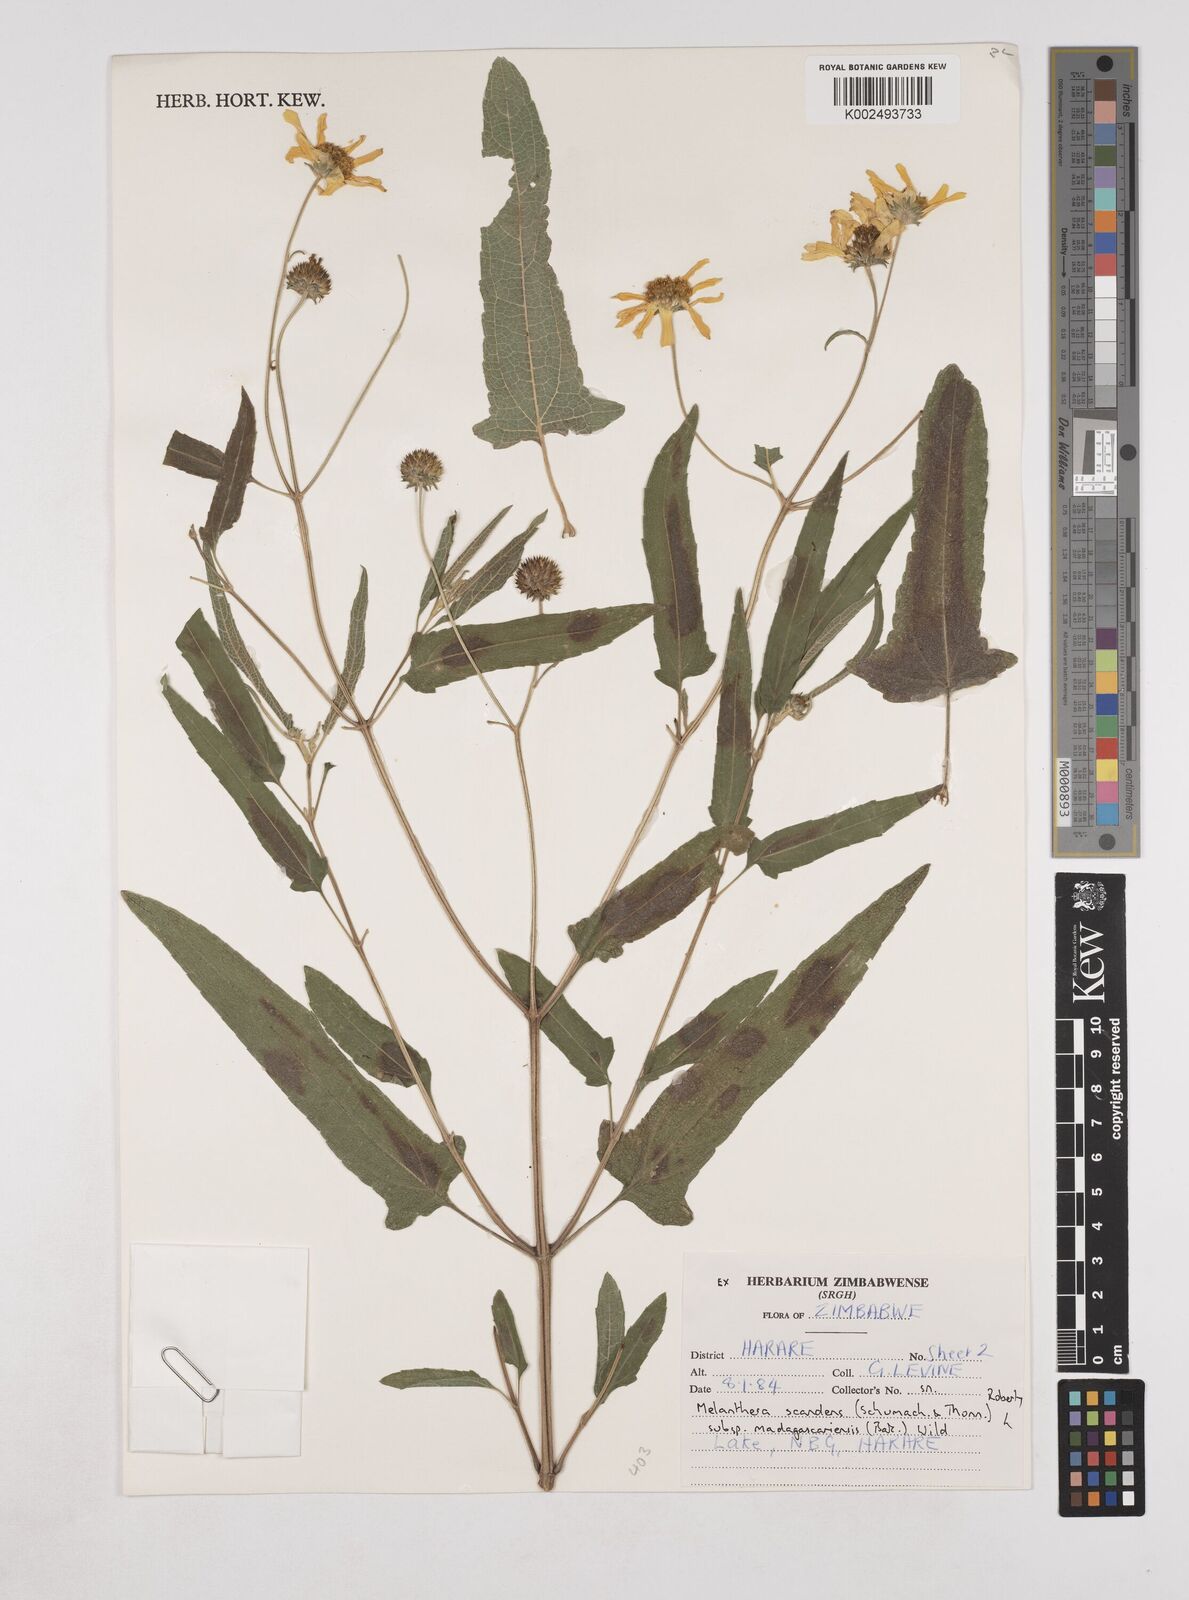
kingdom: Plantae
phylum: Tracheophyta
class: Magnoliopsida
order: Asterales
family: Asteraceae
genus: Lipotriche
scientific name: Lipotriche scandens
